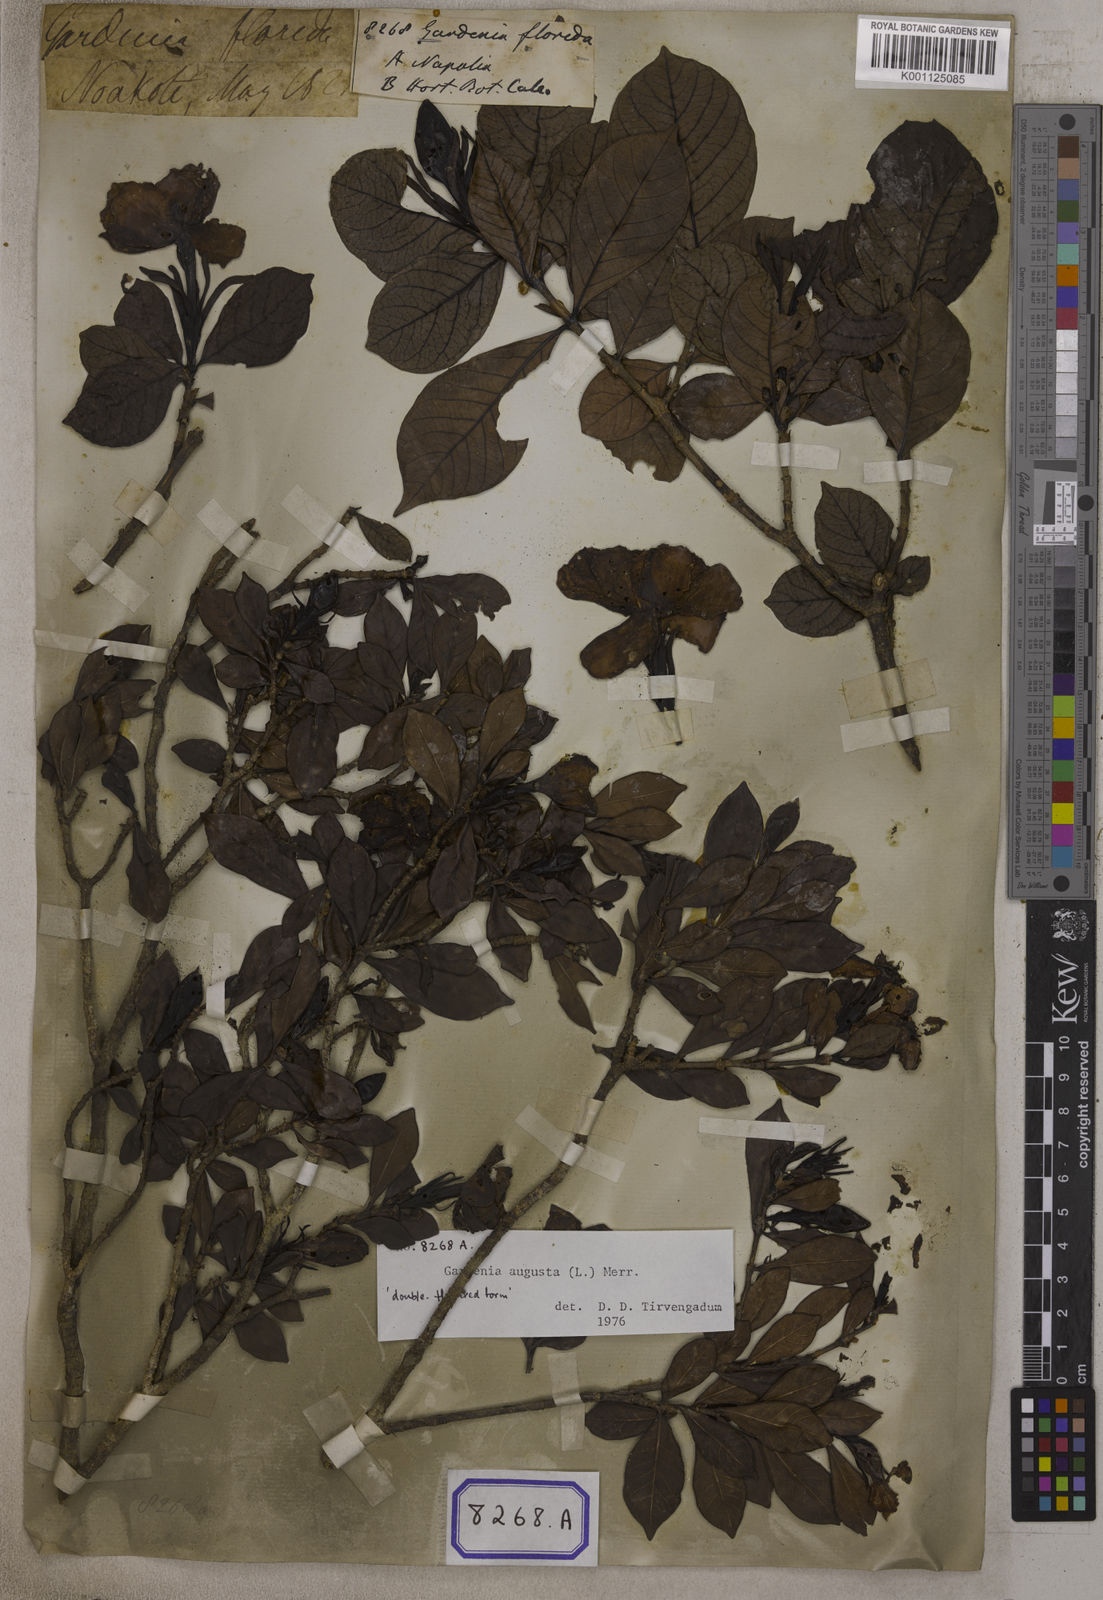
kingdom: Plantae
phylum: Tracheophyta
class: Magnoliopsida
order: Gentianales
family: Rubiaceae
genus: Gardenia
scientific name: Gardenia jasminoides
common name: Cape-jasmine
